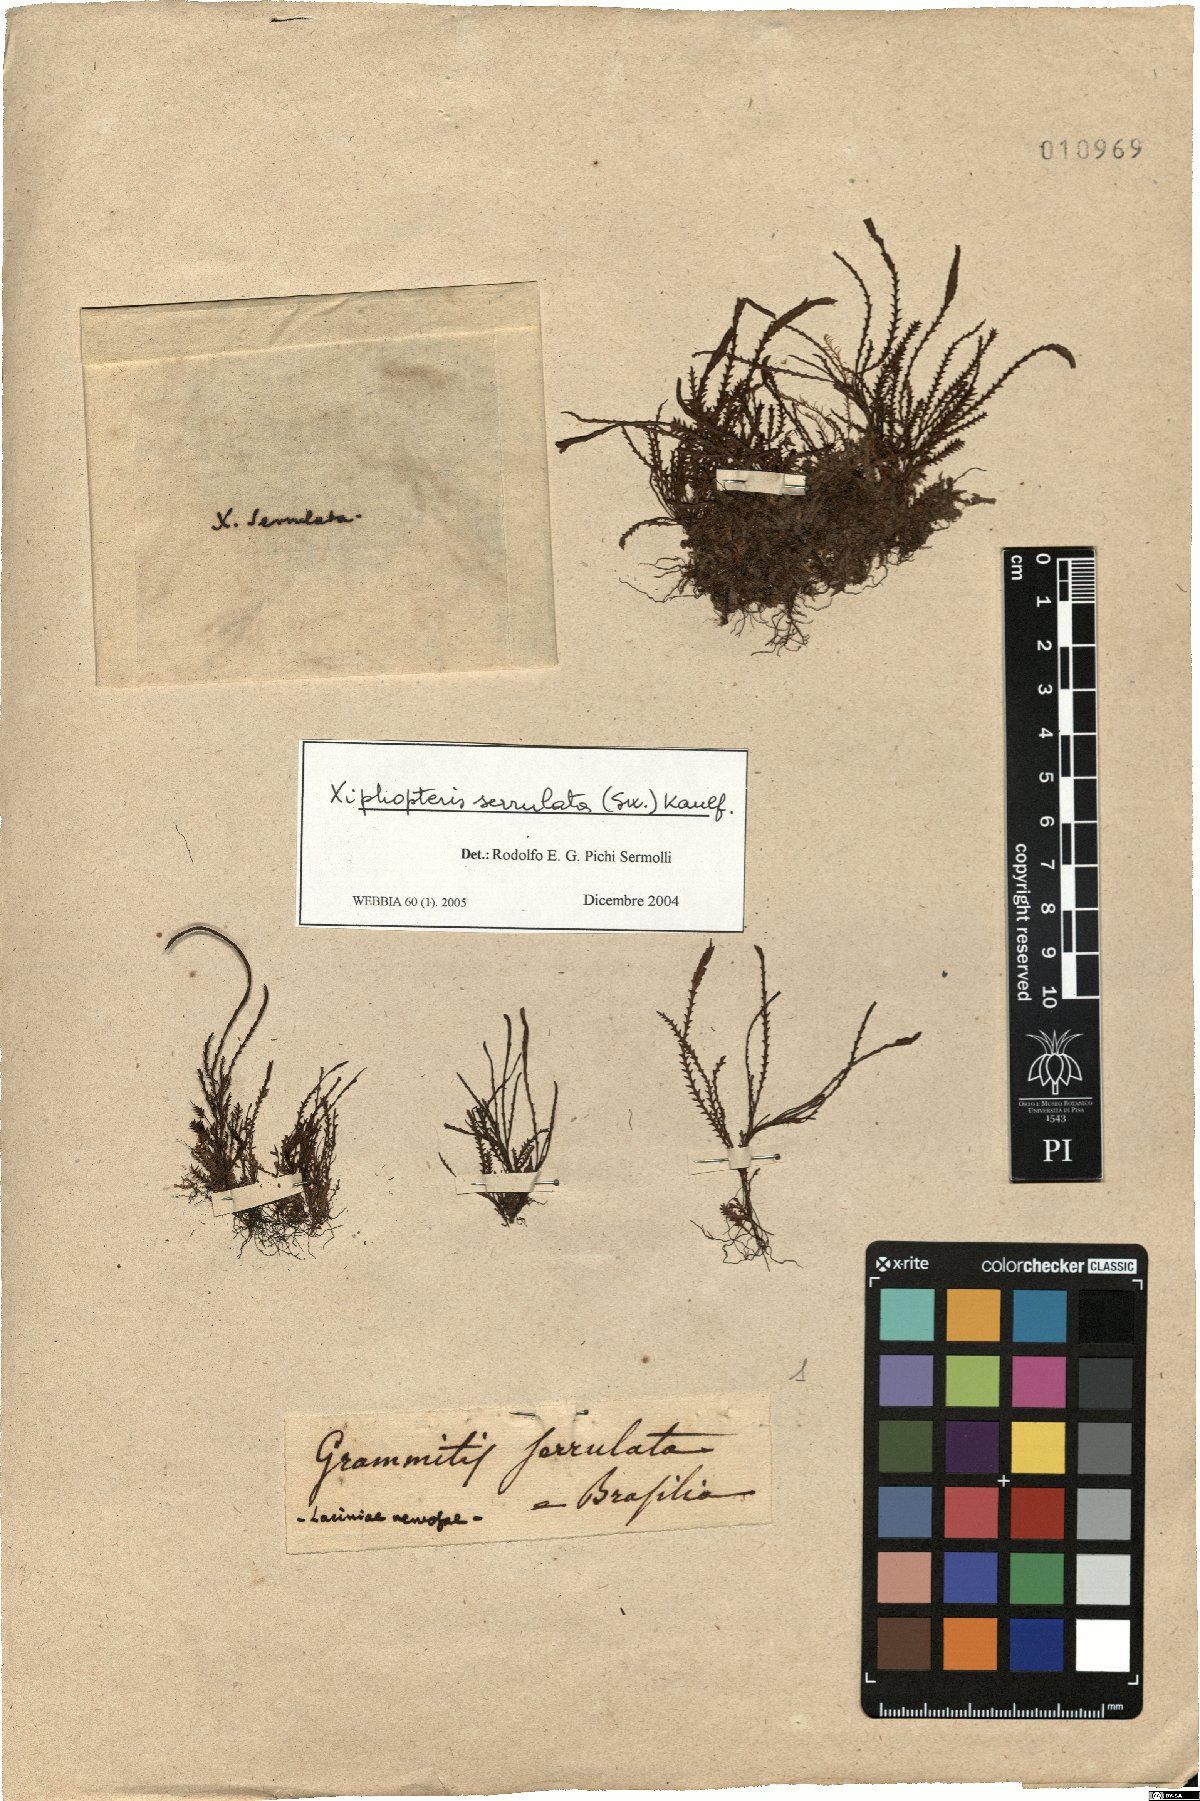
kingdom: Plantae
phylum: Tracheophyta
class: Polypodiopsida
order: Polypodiales
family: Polypodiaceae
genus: Cochlidium
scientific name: Cochlidium serrulatum
